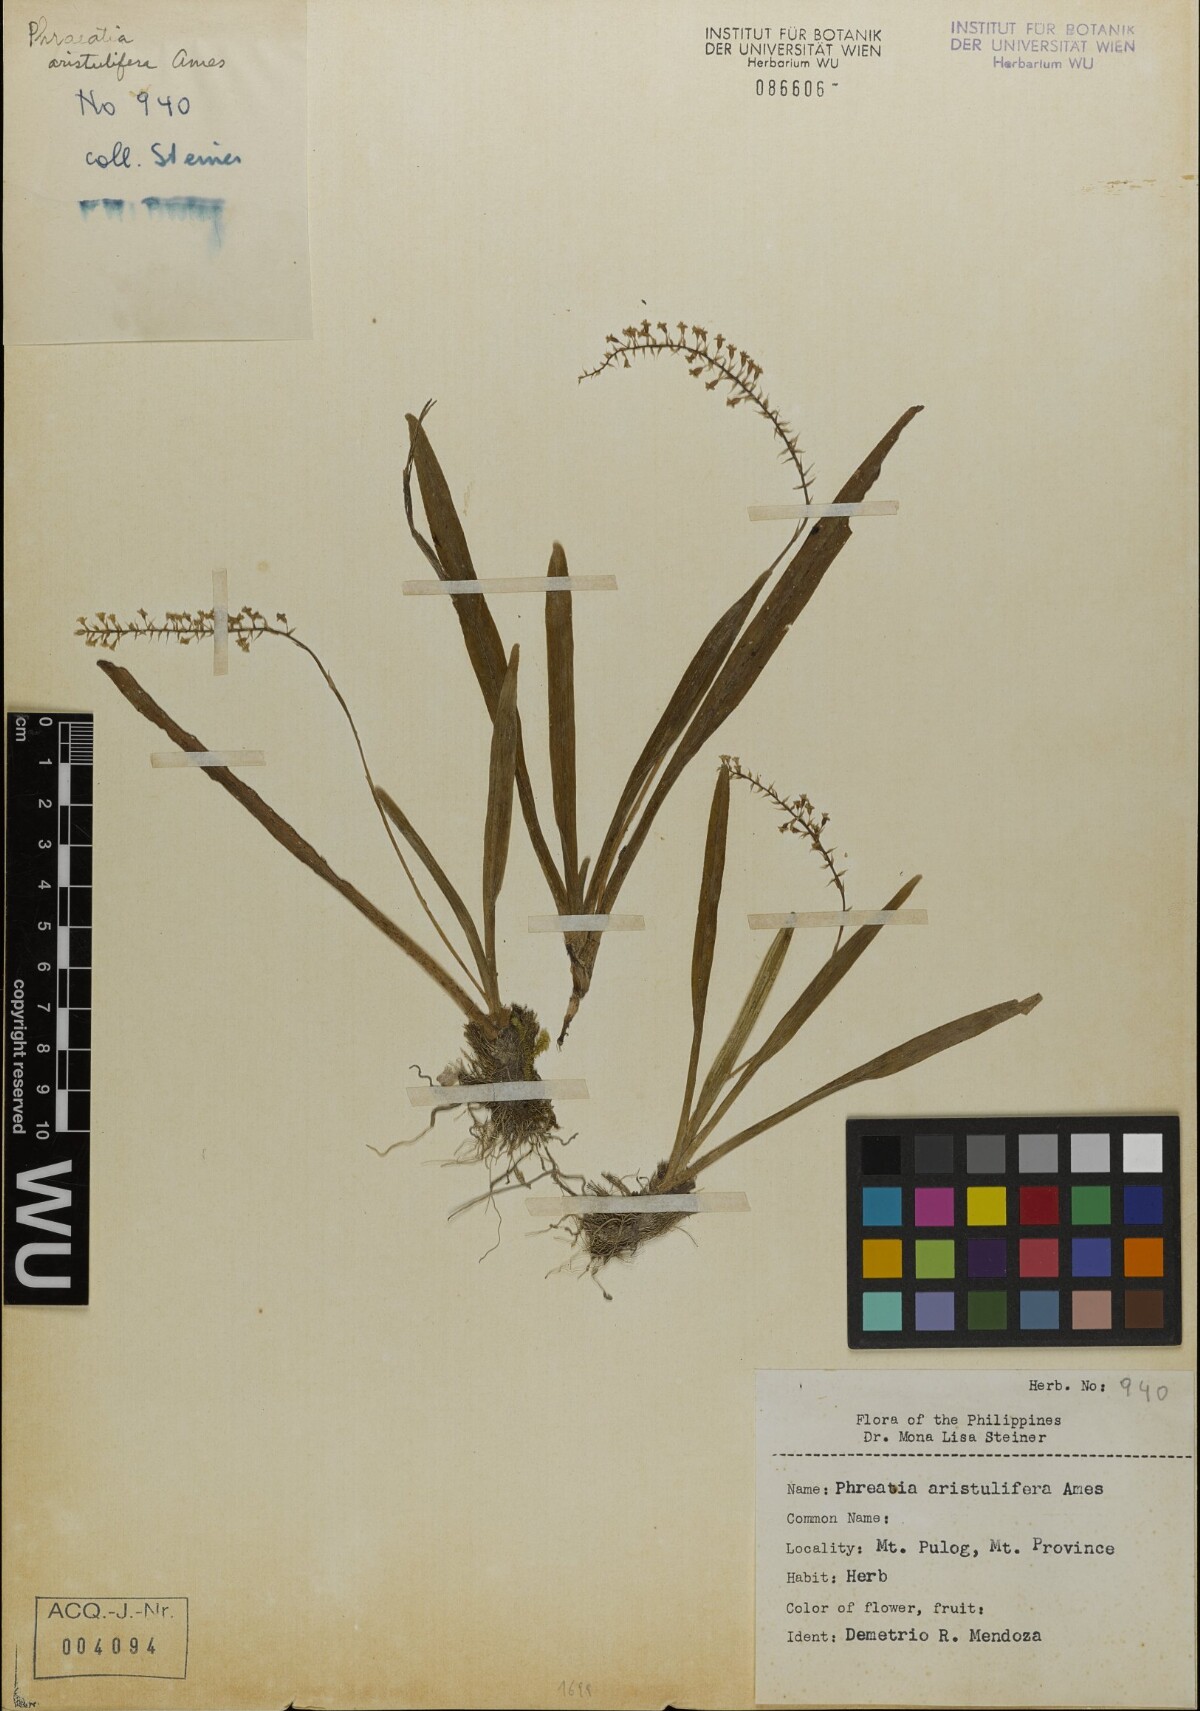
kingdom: Plantae
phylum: Tracheophyta
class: Liliopsida
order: Asparagales
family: Orchidaceae
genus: Phreatia
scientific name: Phreatia aristulifera
